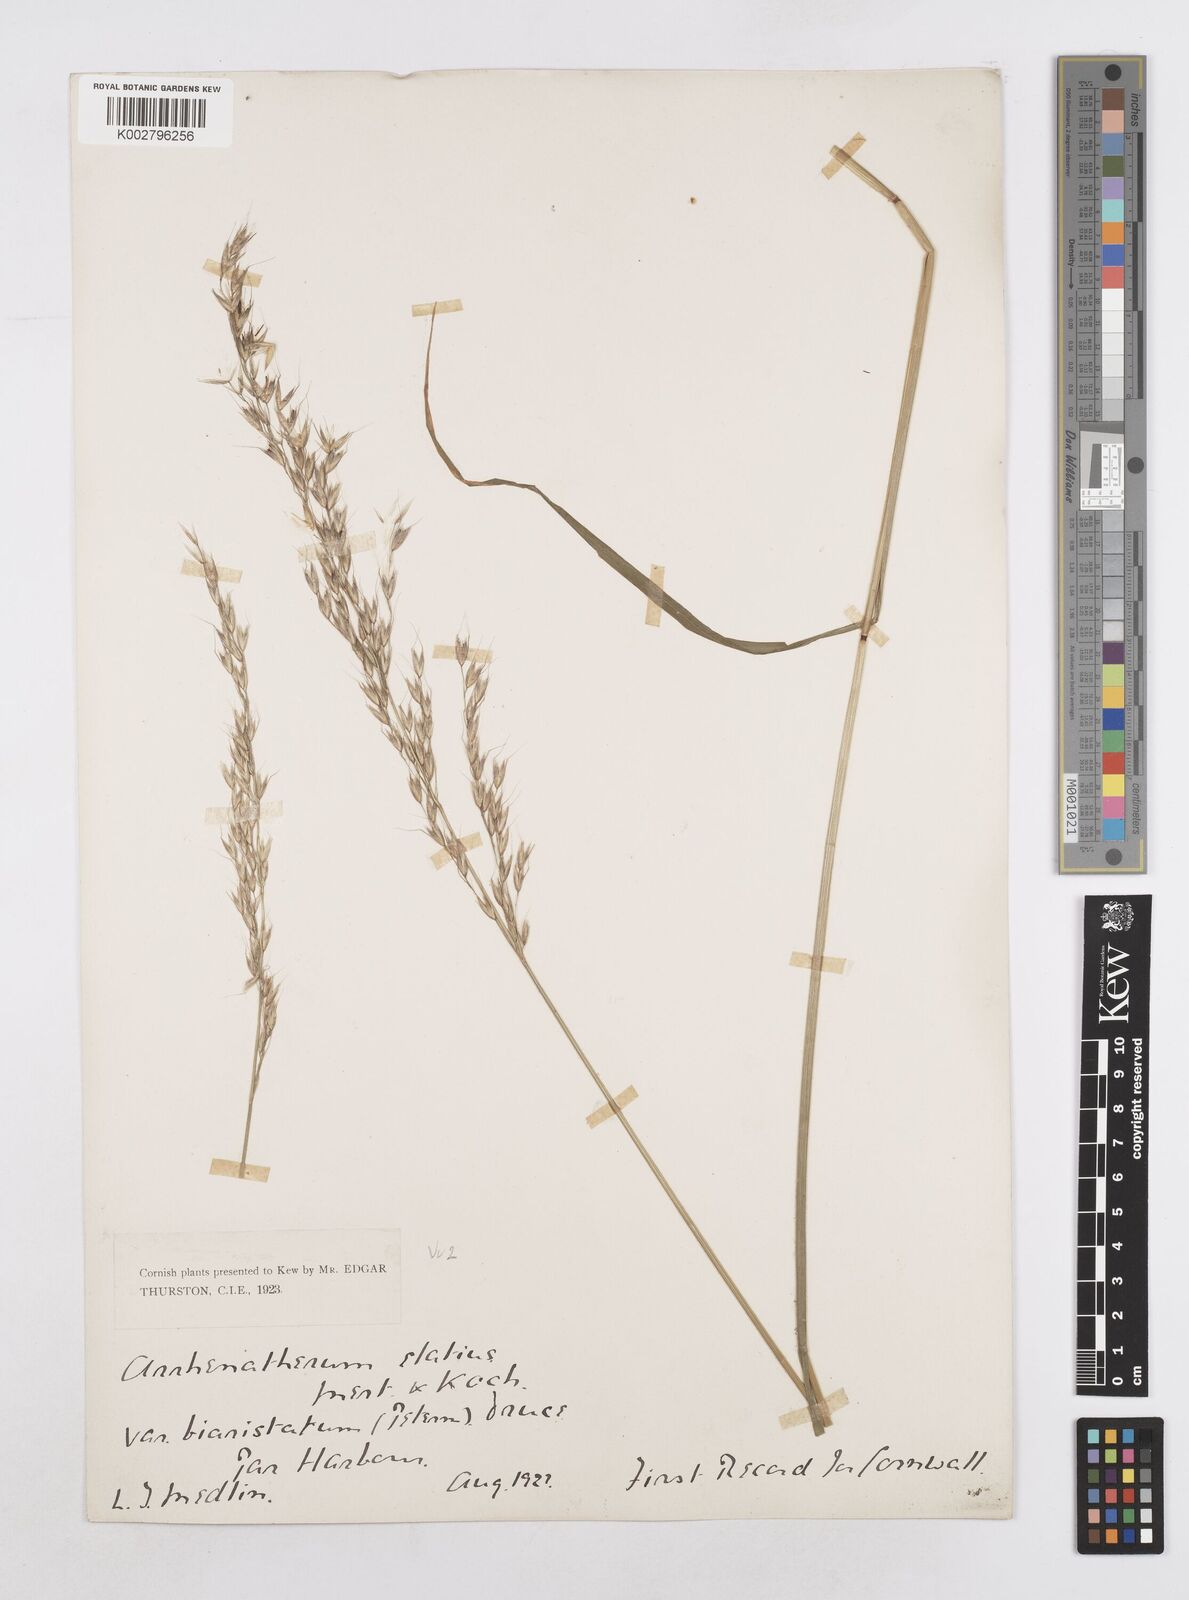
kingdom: Plantae
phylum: Tracheophyta
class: Liliopsida
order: Poales
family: Poaceae
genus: Arrhenatherum
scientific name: Arrhenatherum elatius
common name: Tall oatgrass
